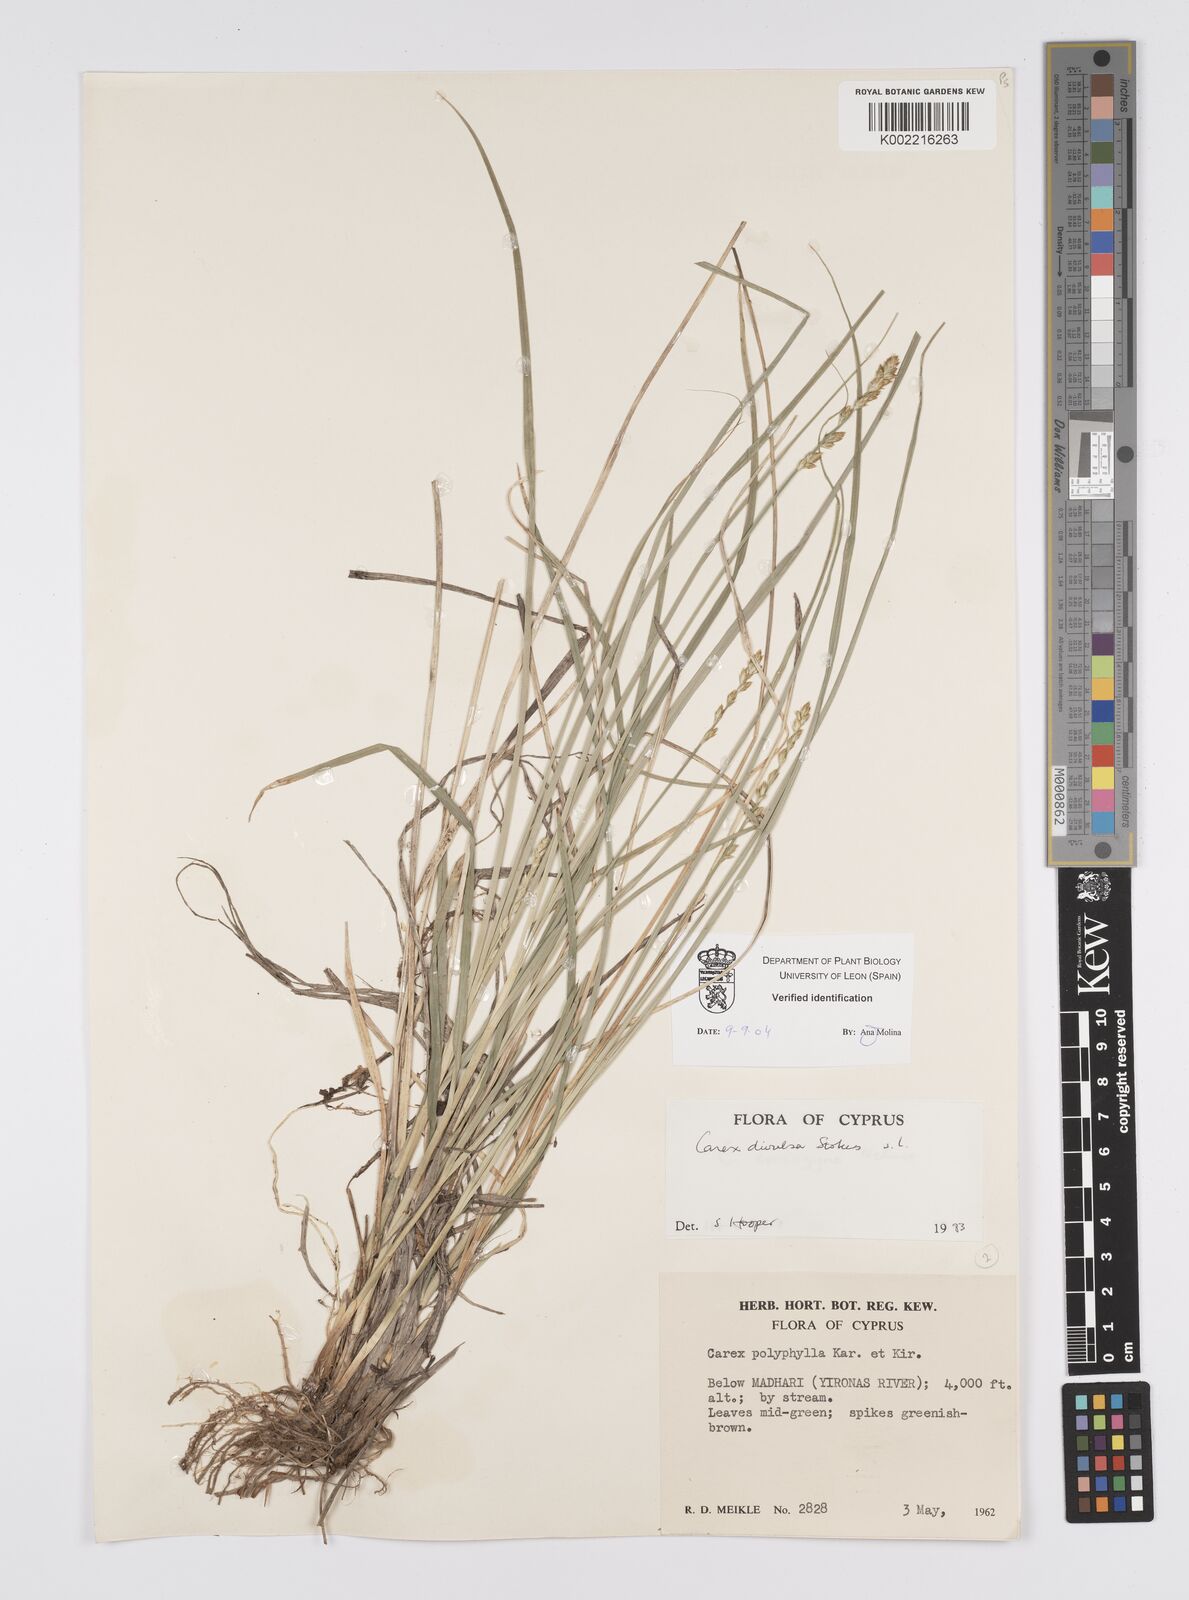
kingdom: Plantae
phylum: Tracheophyta
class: Liliopsida
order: Poales
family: Cyperaceae
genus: Carex
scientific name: Carex divulsa
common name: Grassland sedge
